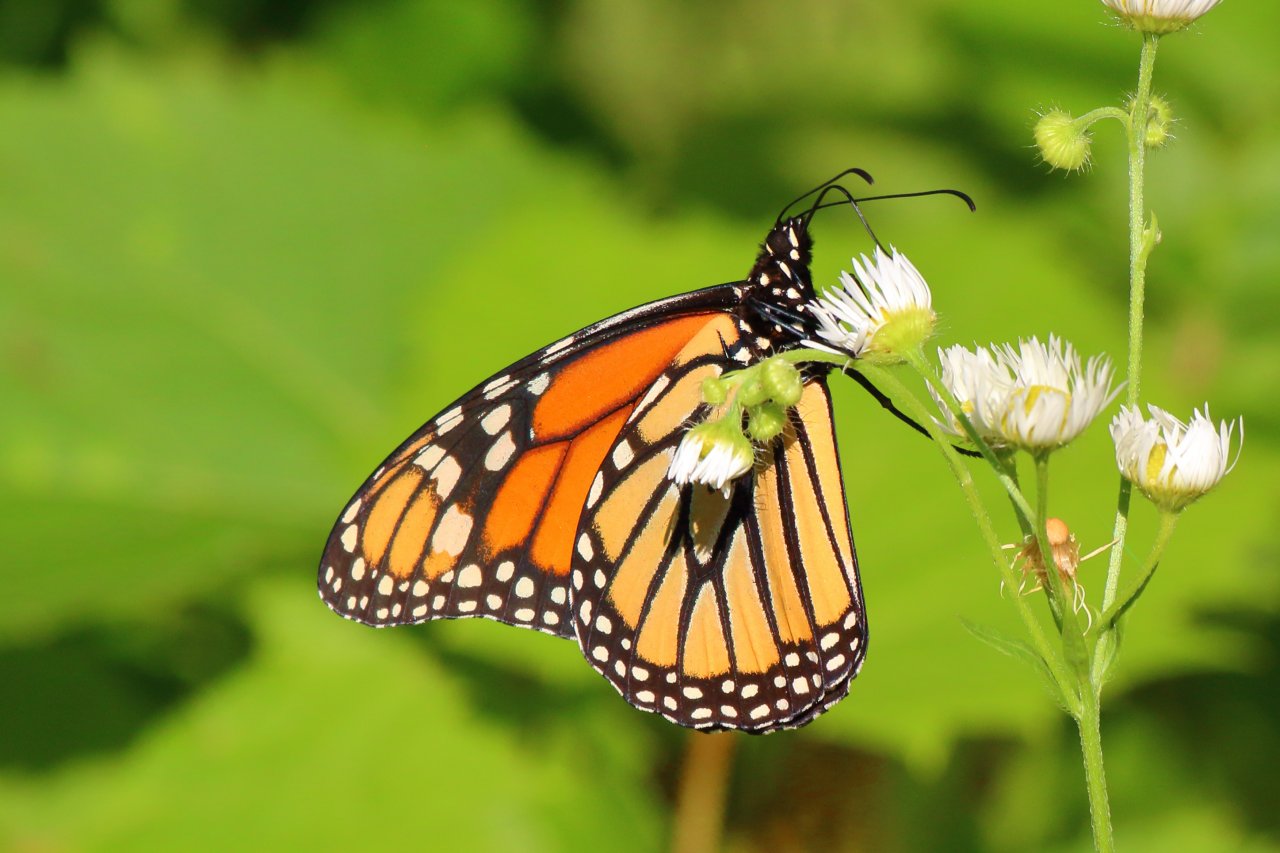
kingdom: Animalia
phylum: Arthropoda
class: Insecta
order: Lepidoptera
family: Nymphalidae
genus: Danaus
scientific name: Danaus plexippus
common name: Monarch
